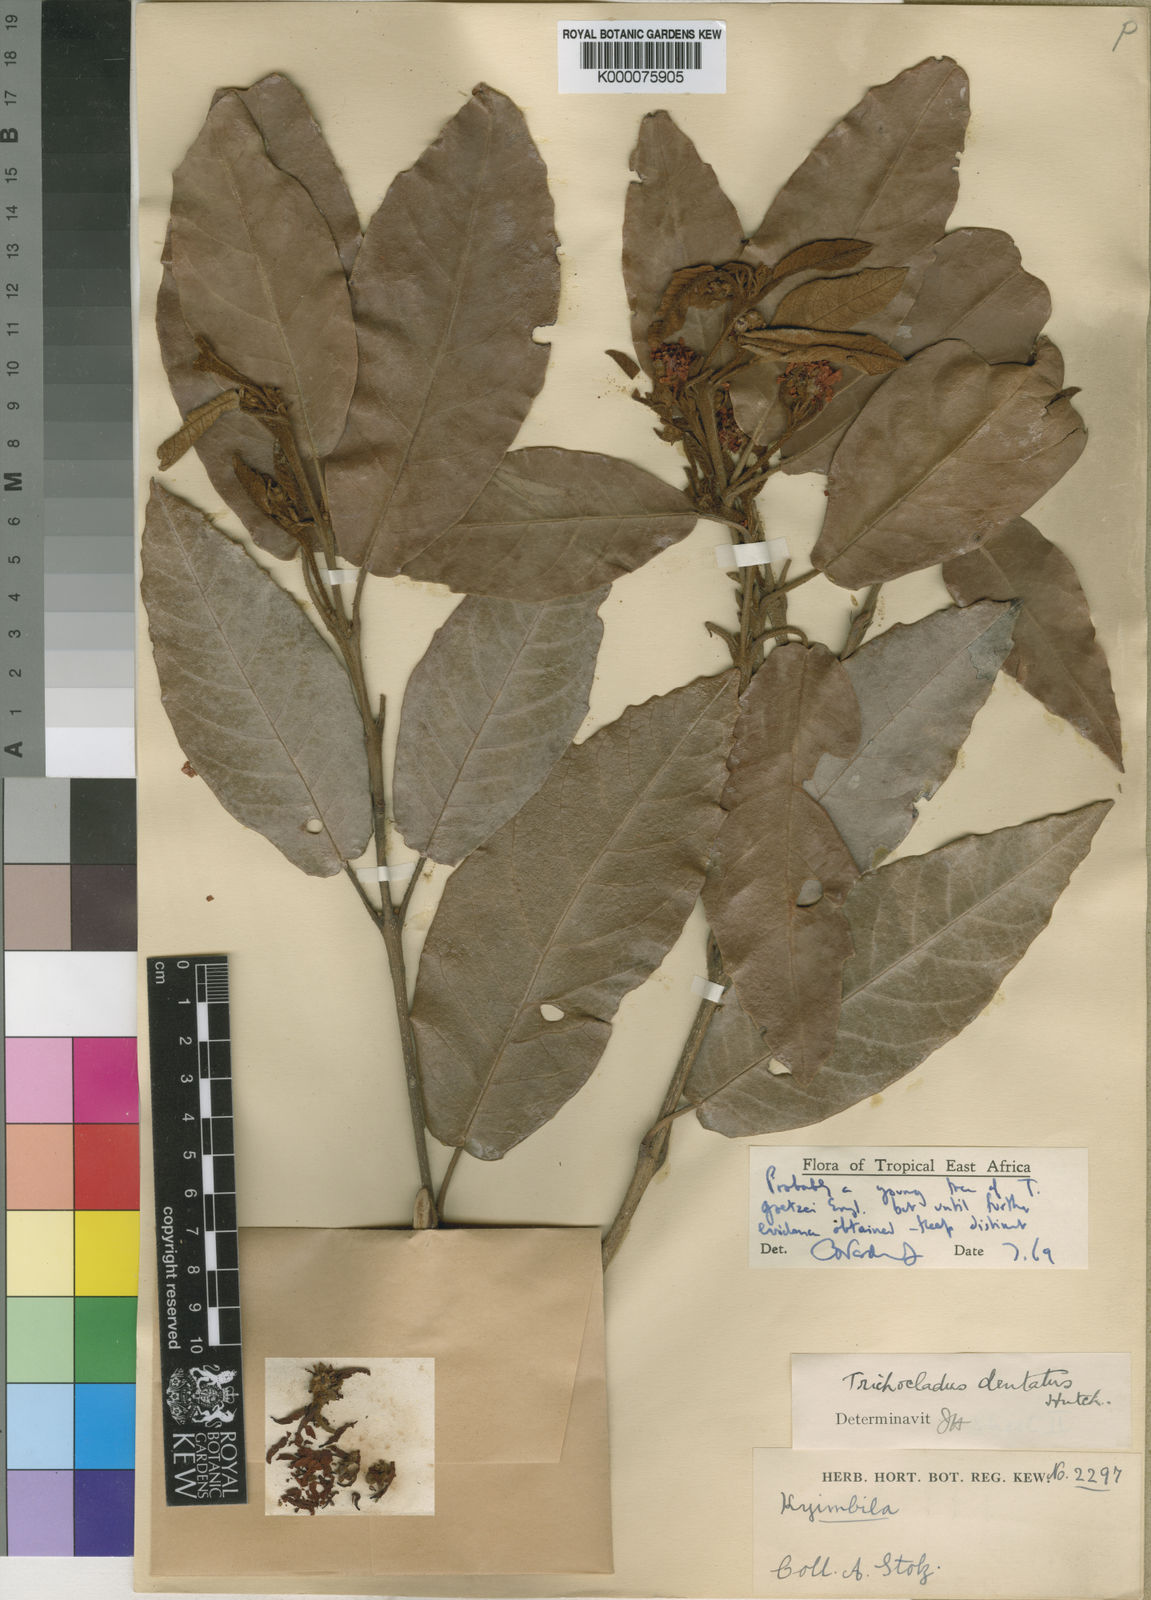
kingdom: Plantae
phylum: Tracheophyta
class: Magnoliopsida
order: Saxifragales
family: Hamamelidaceae
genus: Trichocladus
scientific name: Trichocladus goetzei
